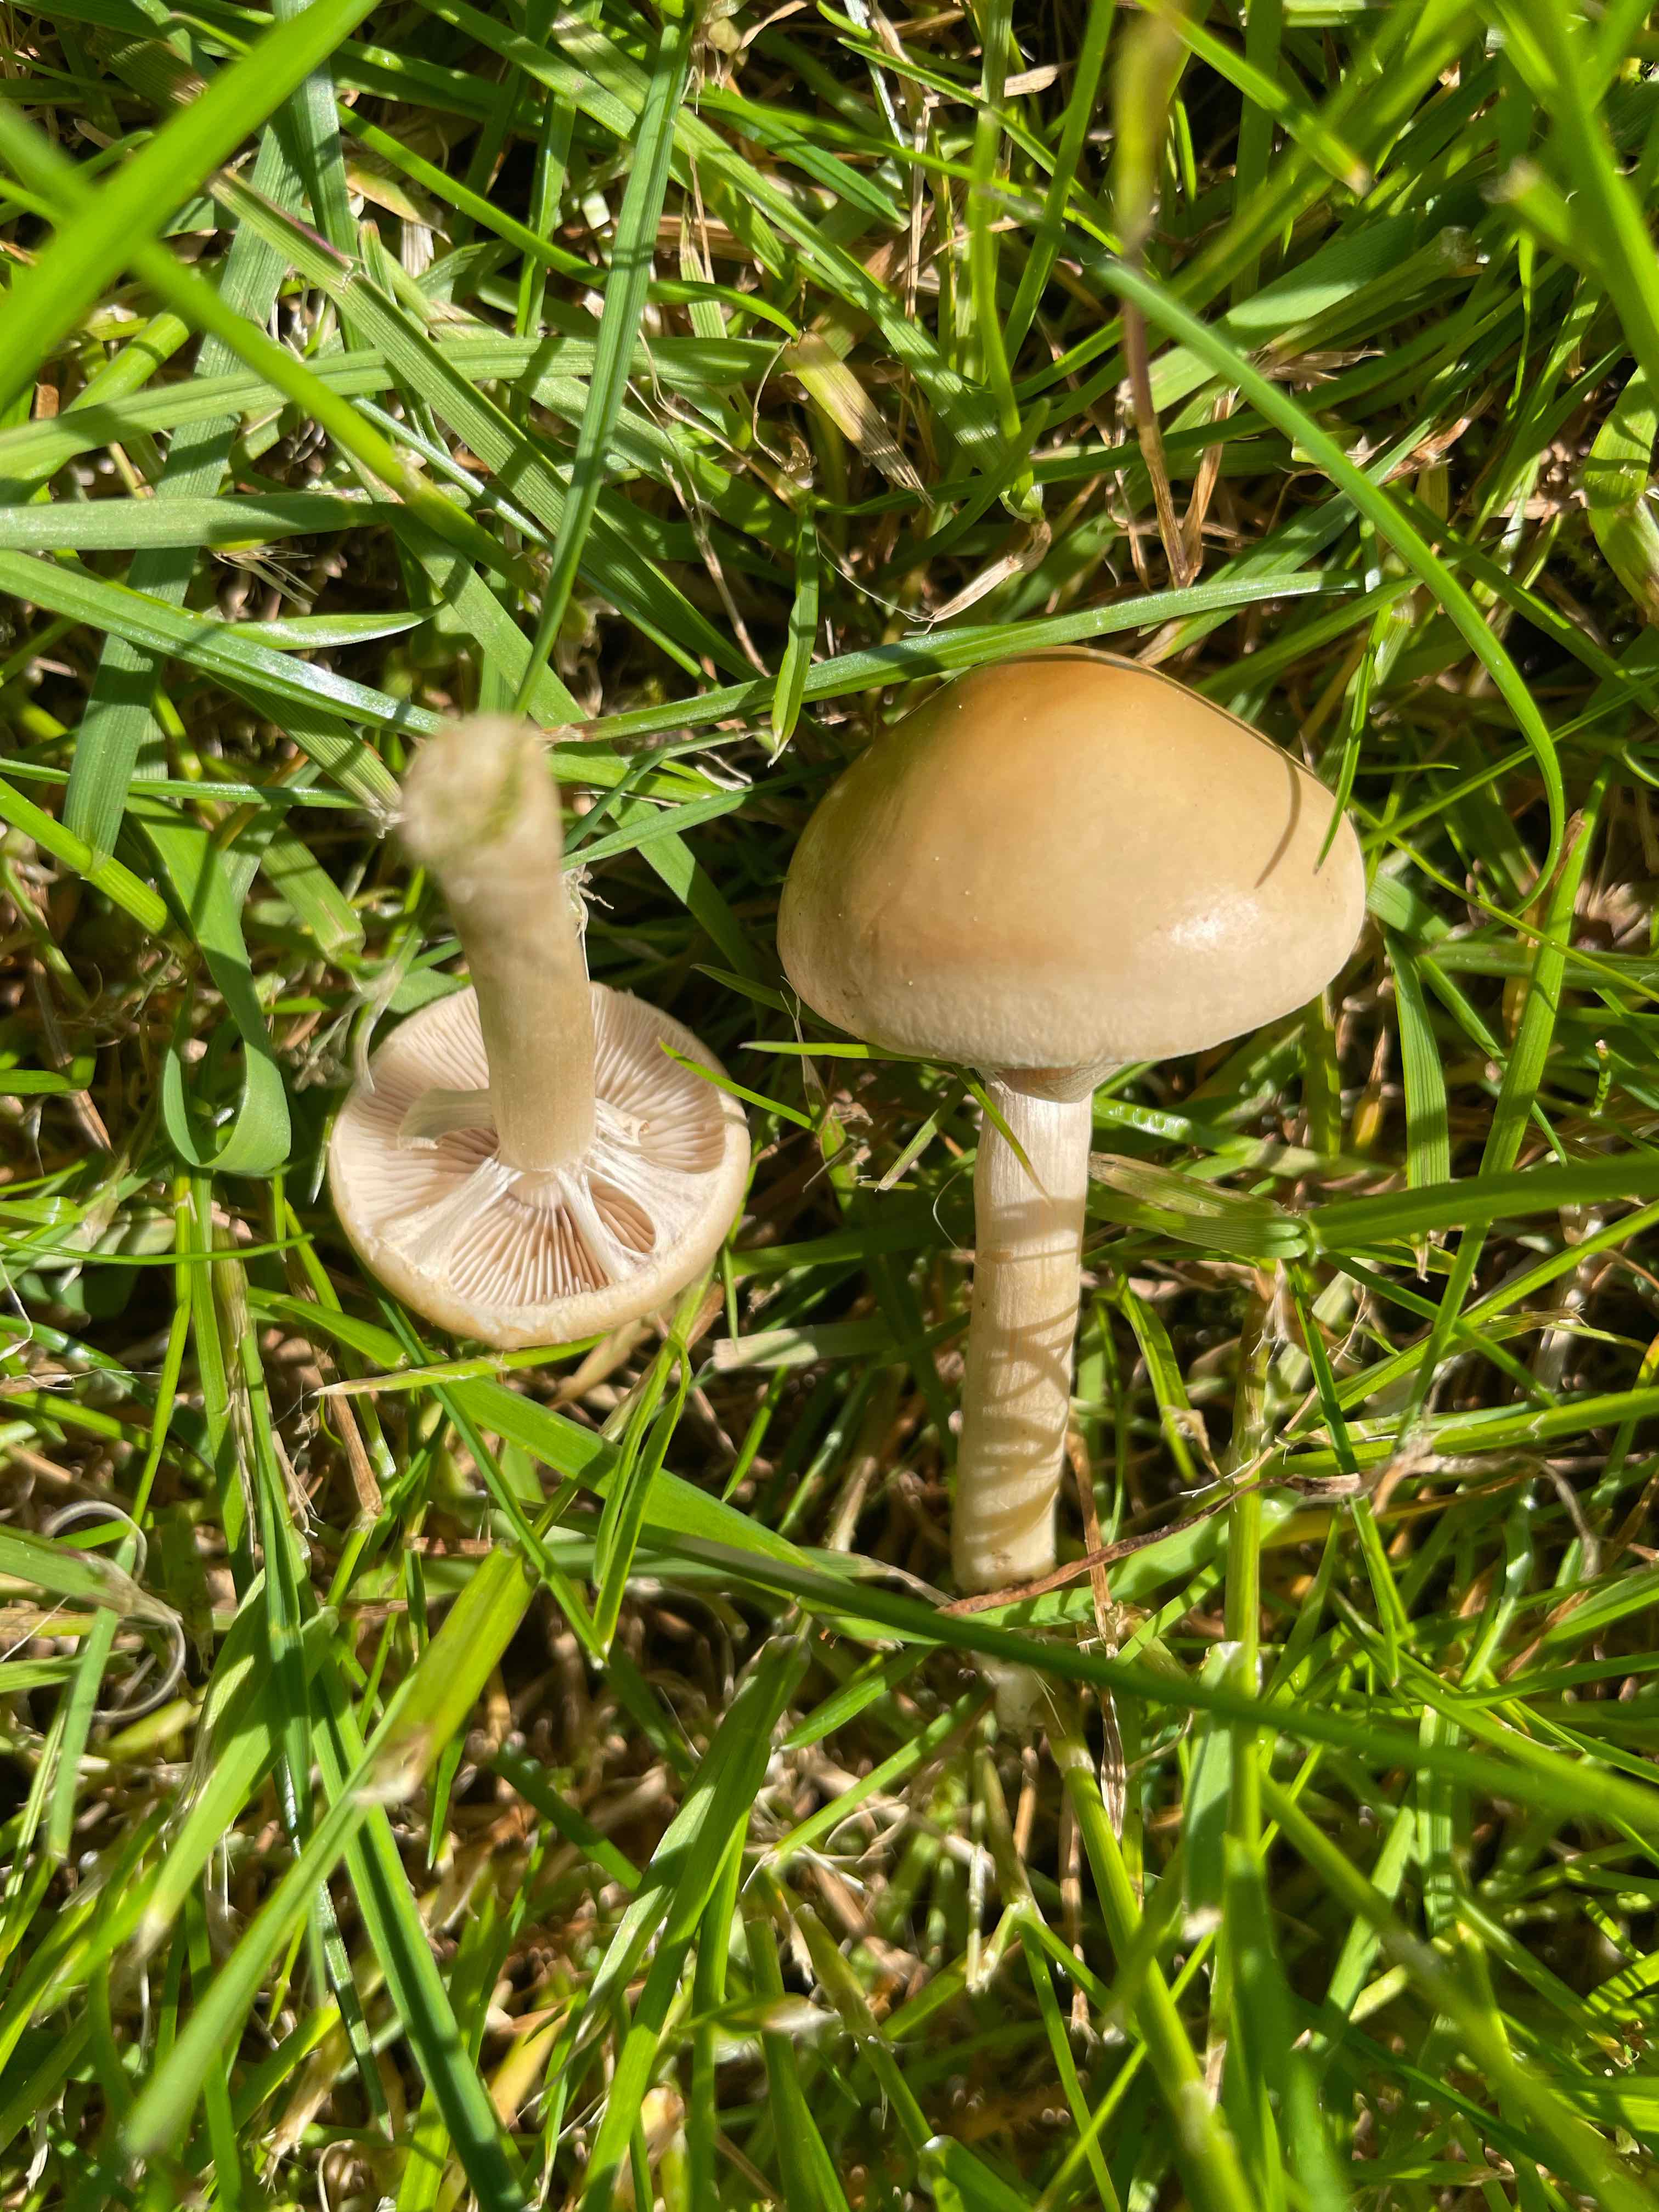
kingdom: Fungi
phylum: Basidiomycota
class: Agaricomycetes
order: Agaricales
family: Strophariaceae
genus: Agrocybe
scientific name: Agrocybe praecox
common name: tidlig agerhat
